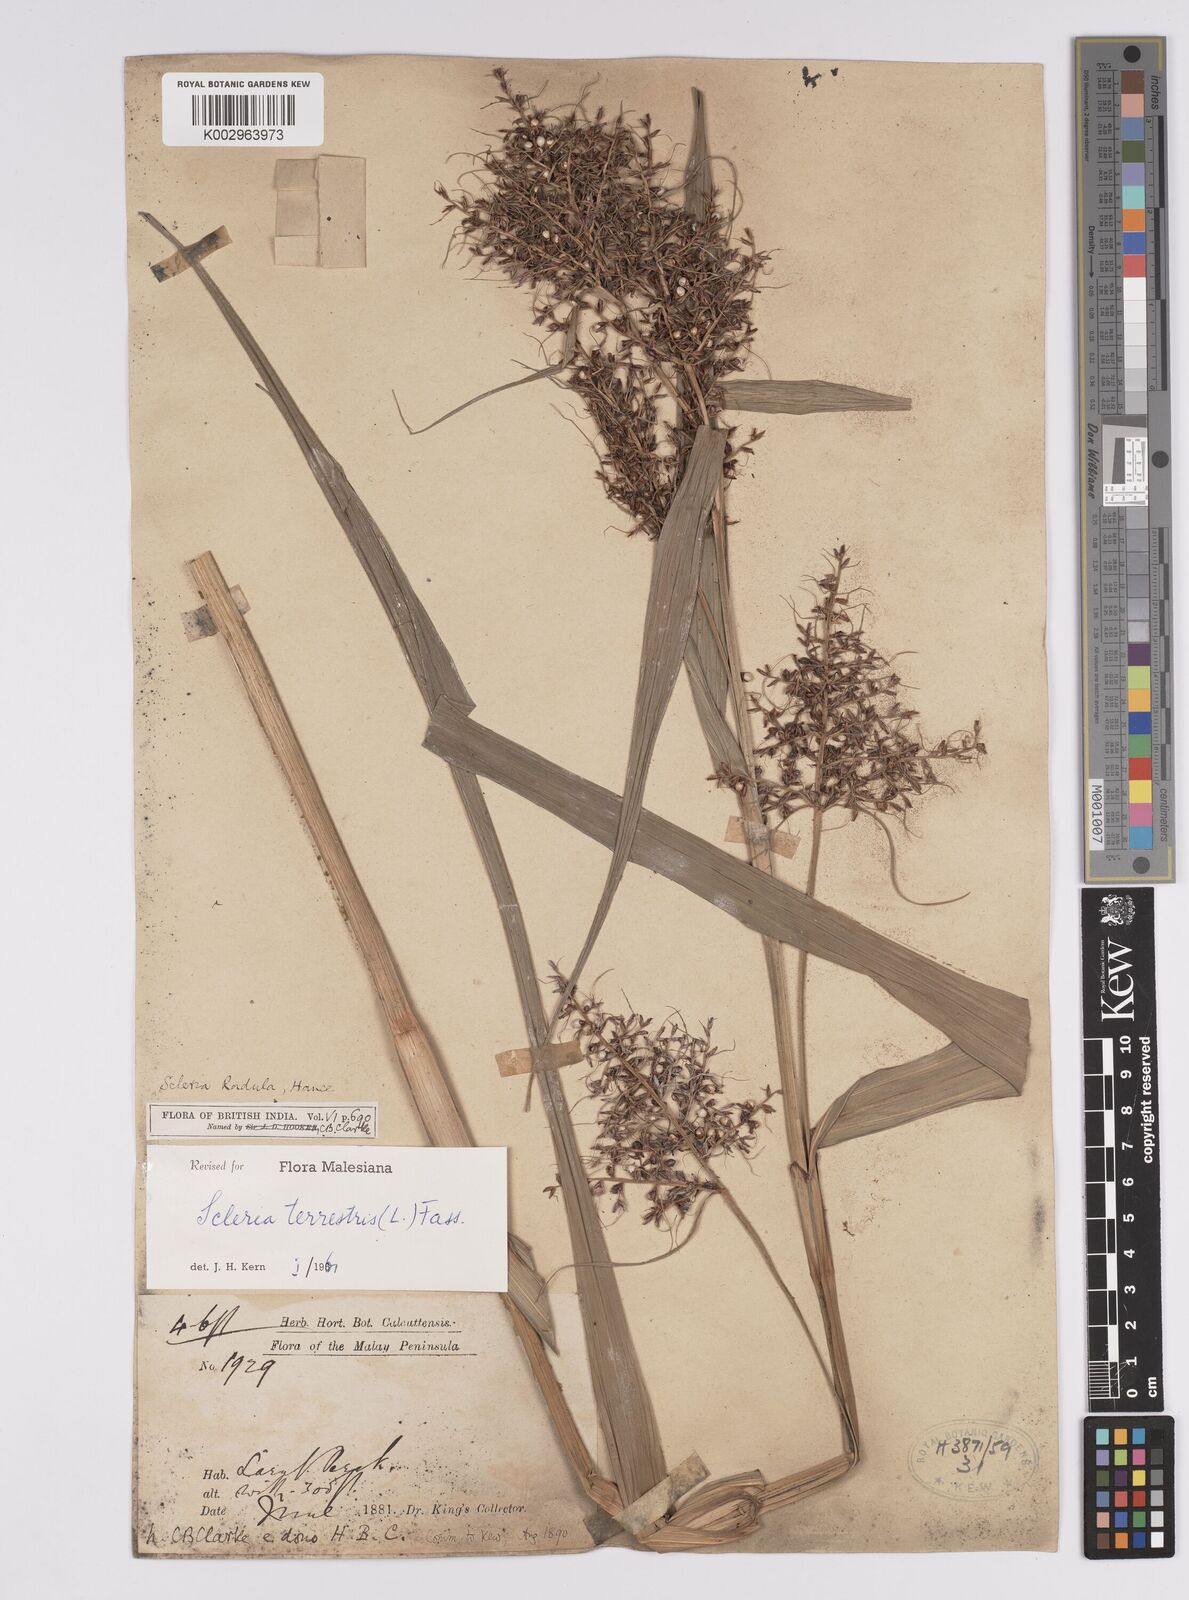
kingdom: Plantae
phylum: Tracheophyta
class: Liliopsida
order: Poales
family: Cyperaceae
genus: Scleria
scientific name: Scleria terrestris
